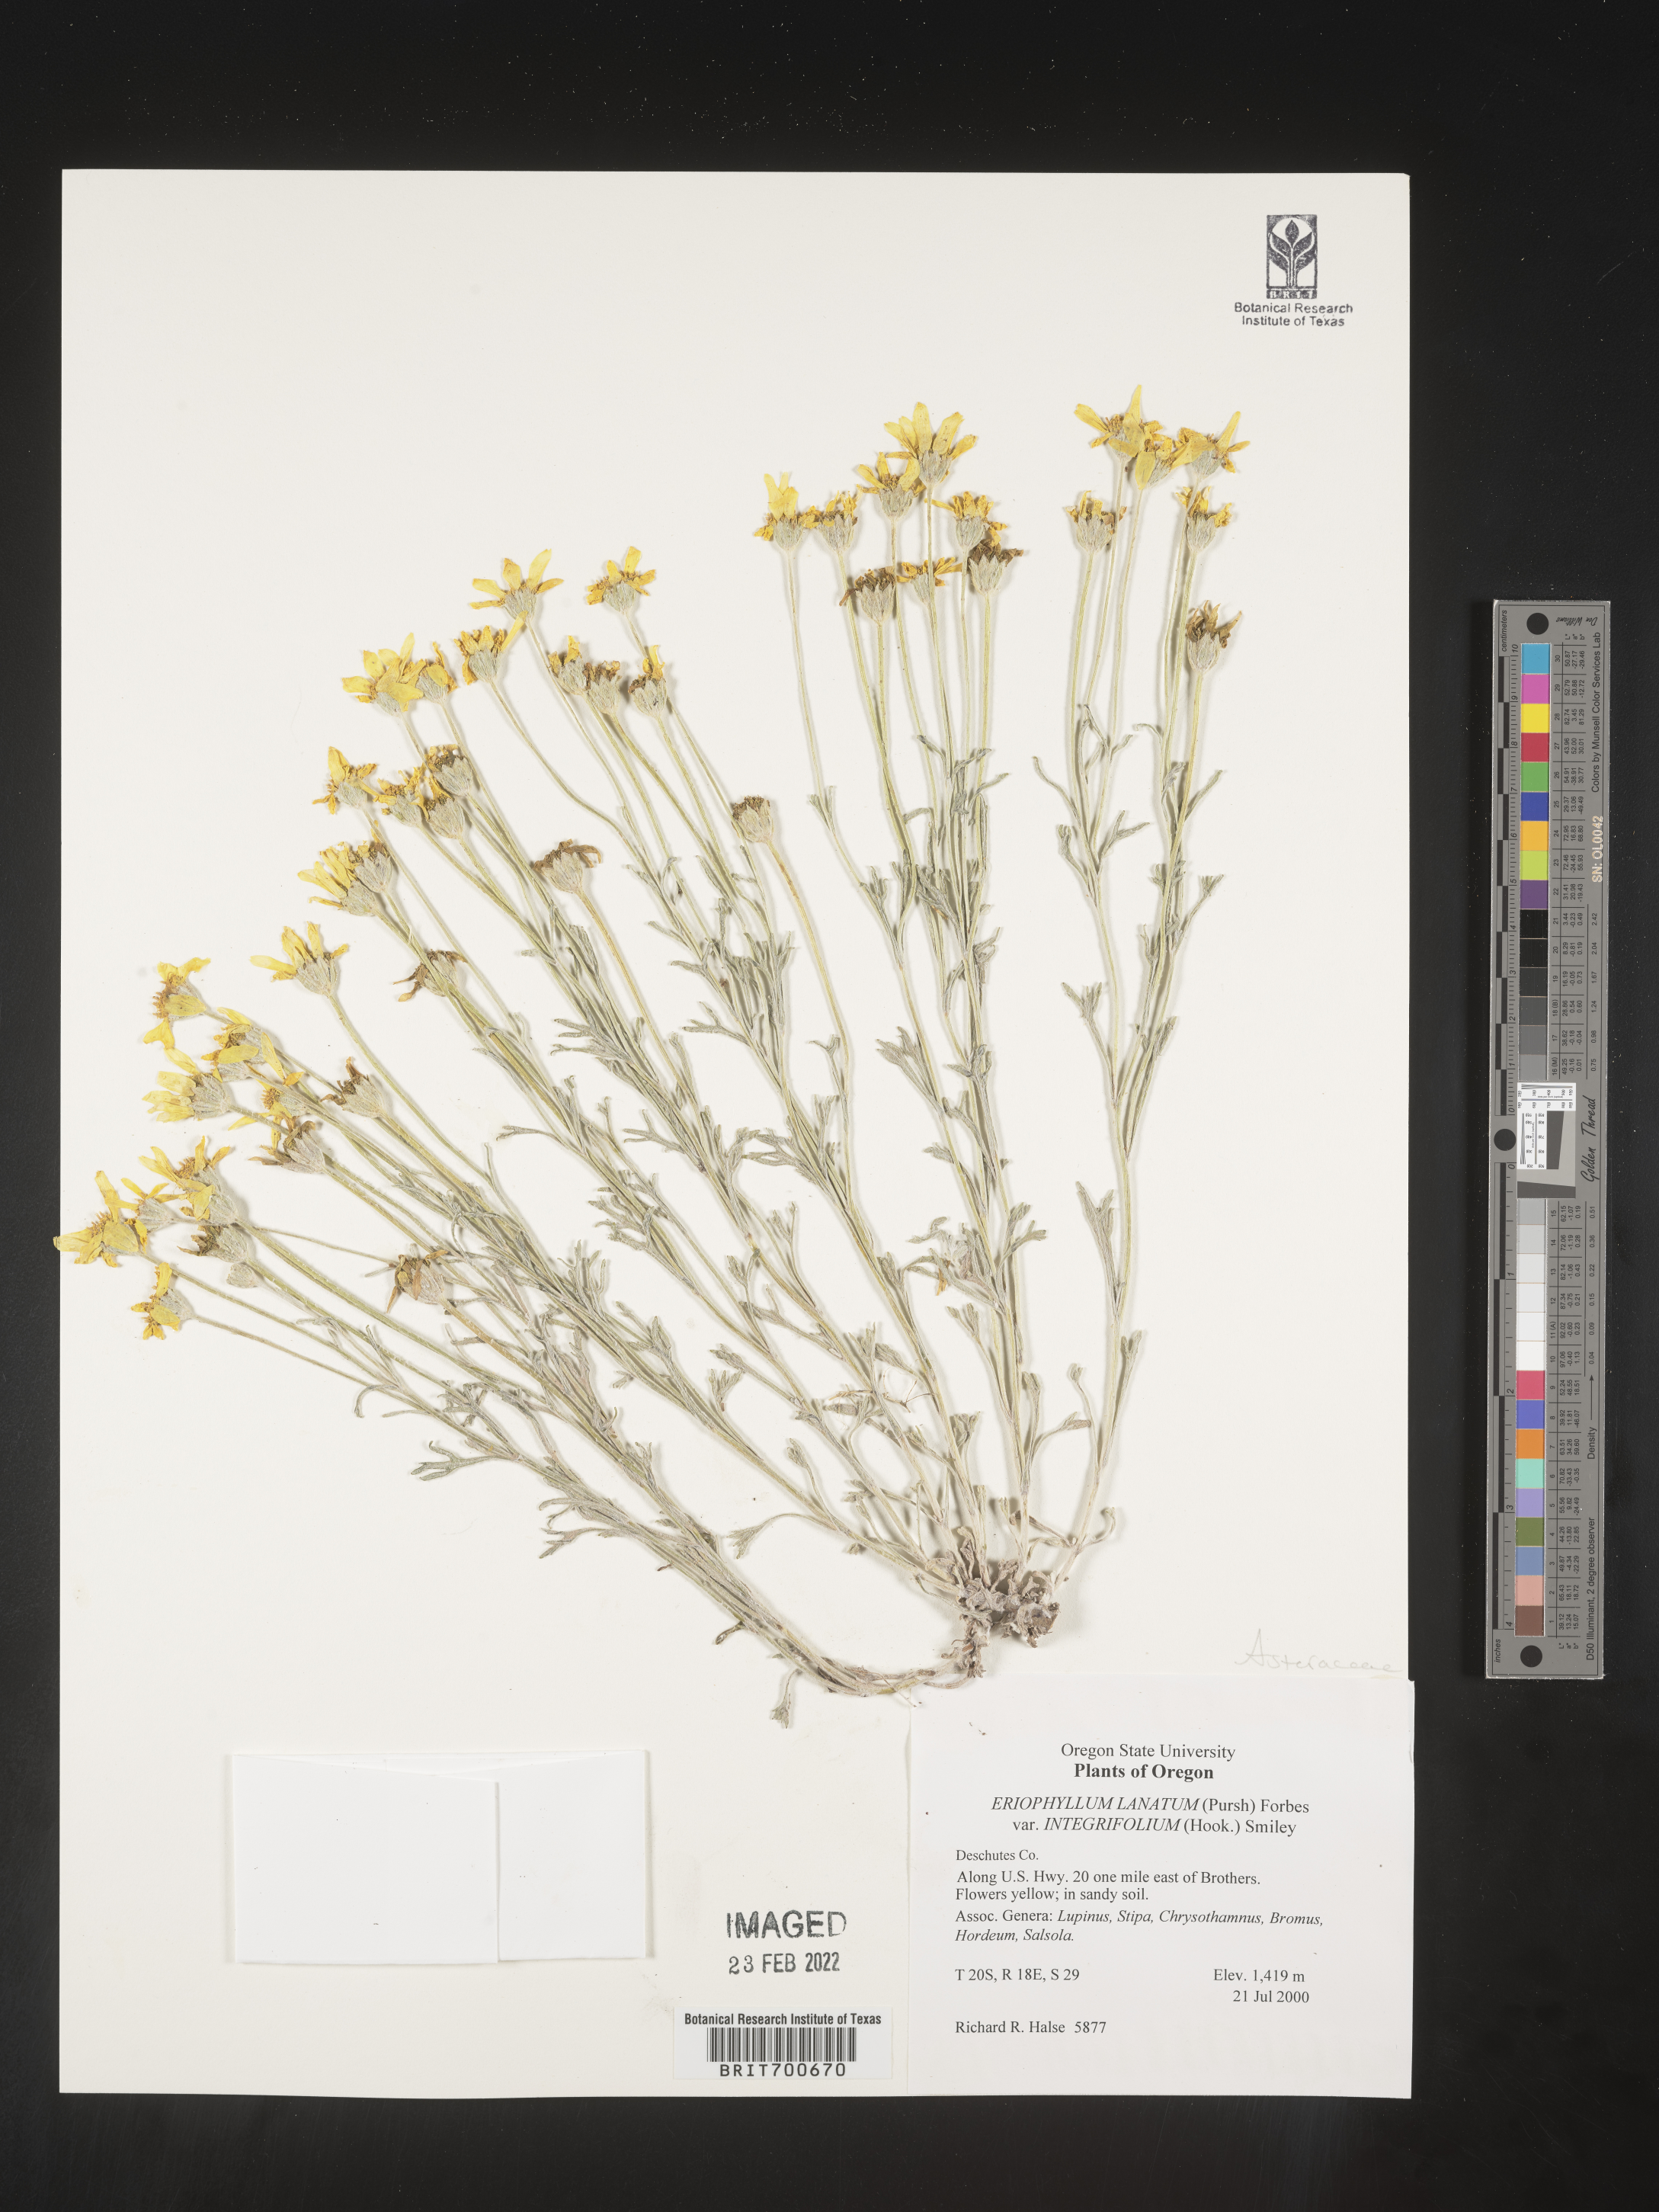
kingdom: Plantae
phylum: Tracheophyta
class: Magnoliopsida
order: Asterales
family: Asteraceae
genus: Eriophyllum
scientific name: Eriophyllum lanatum
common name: Common woolly-sunflower
